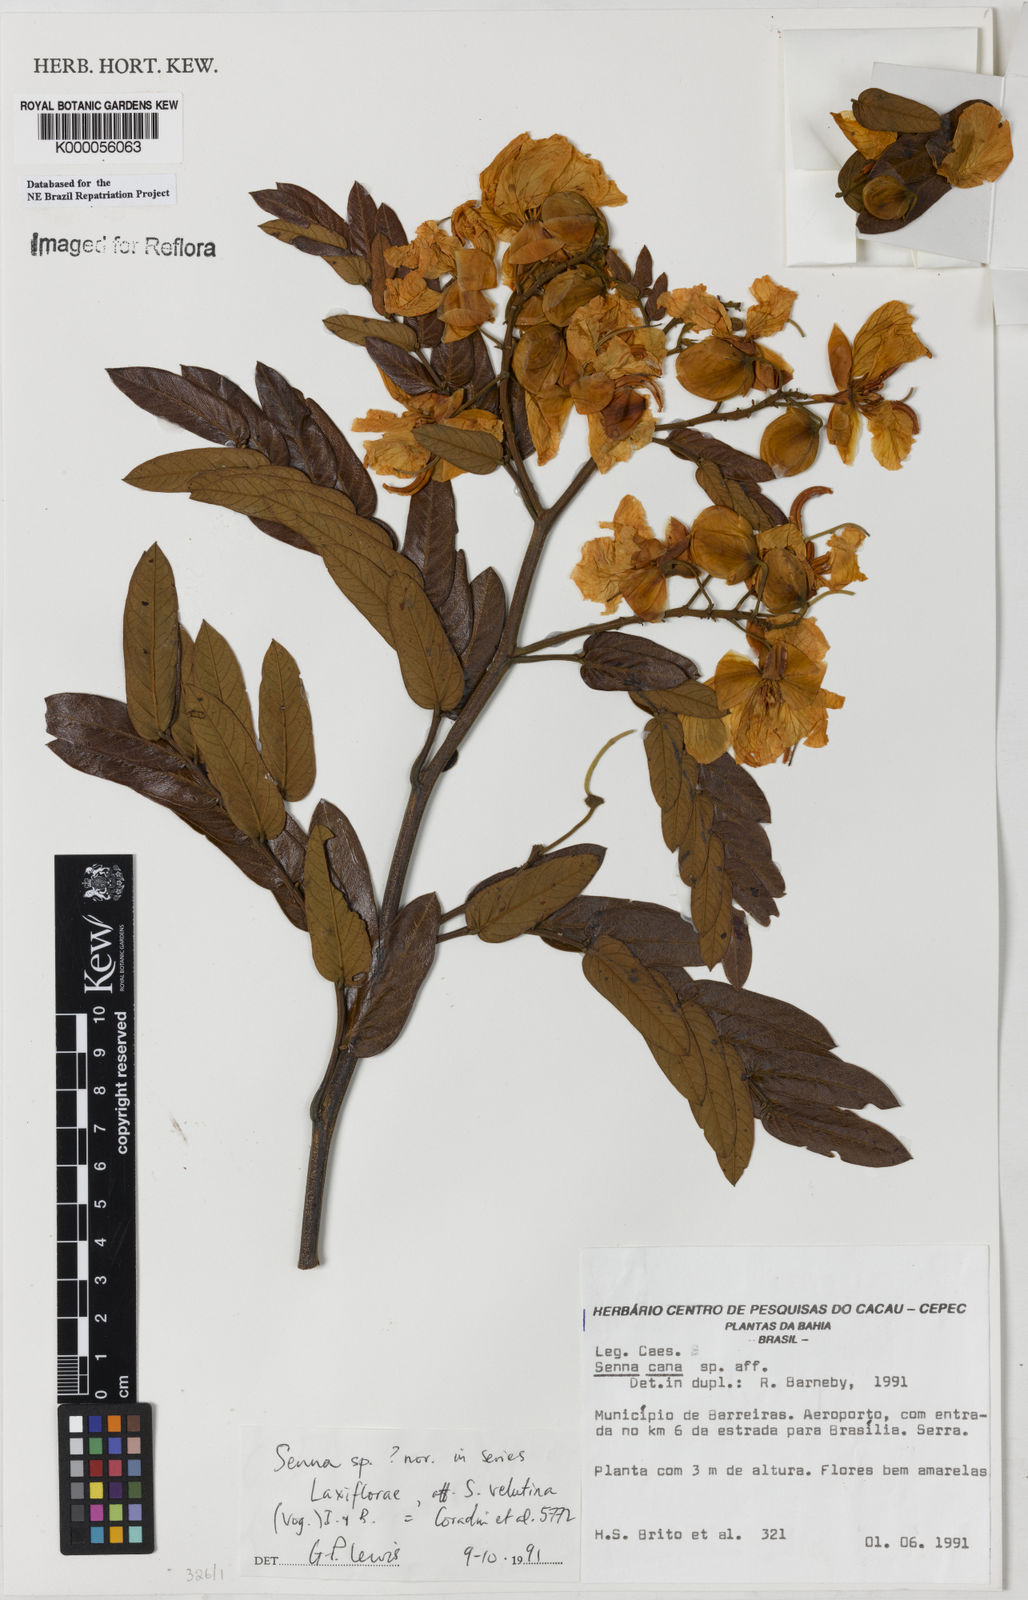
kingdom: Plantae
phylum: Tracheophyta
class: Magnoliopsida
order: Fabales
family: Fabaceae
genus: Senna
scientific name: Senna
